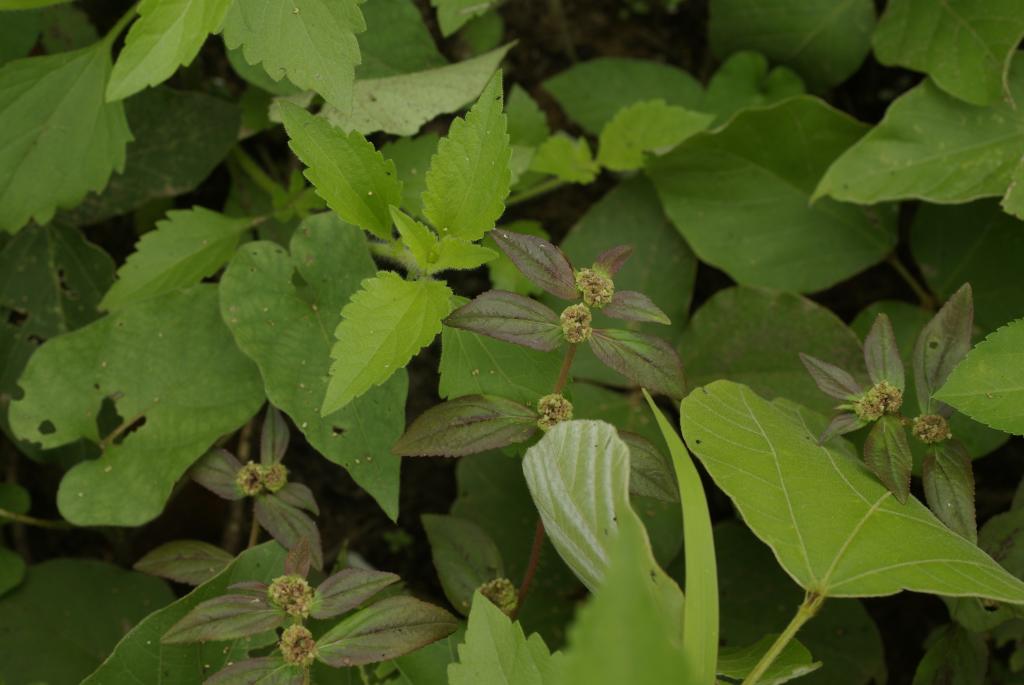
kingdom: Plantae
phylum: Tracheophyta
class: Magnoliopsida
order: Malpighiales
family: Euphorbiaceae
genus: Euphorbia
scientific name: Euphorbia hirta
